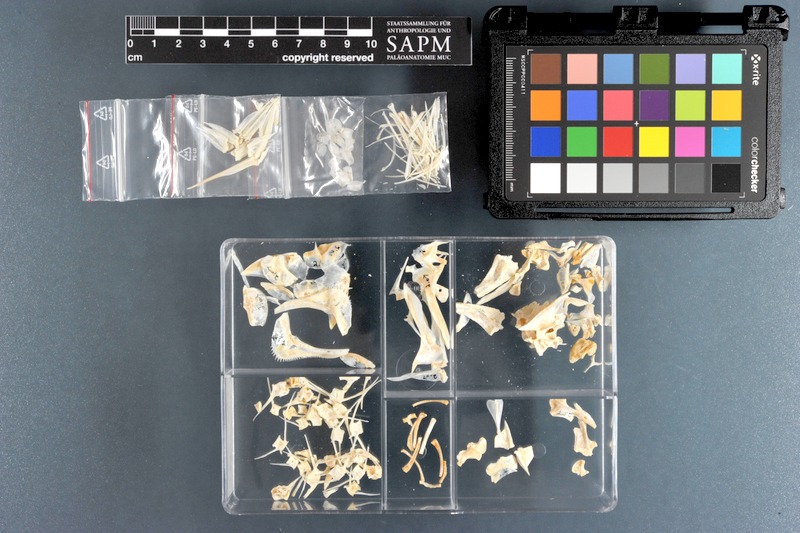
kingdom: Animalia
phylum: Chordata
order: Perciformes
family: Haemulidae
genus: Pomadasys
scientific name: Pomadasys incisus
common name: Bastard grunt
